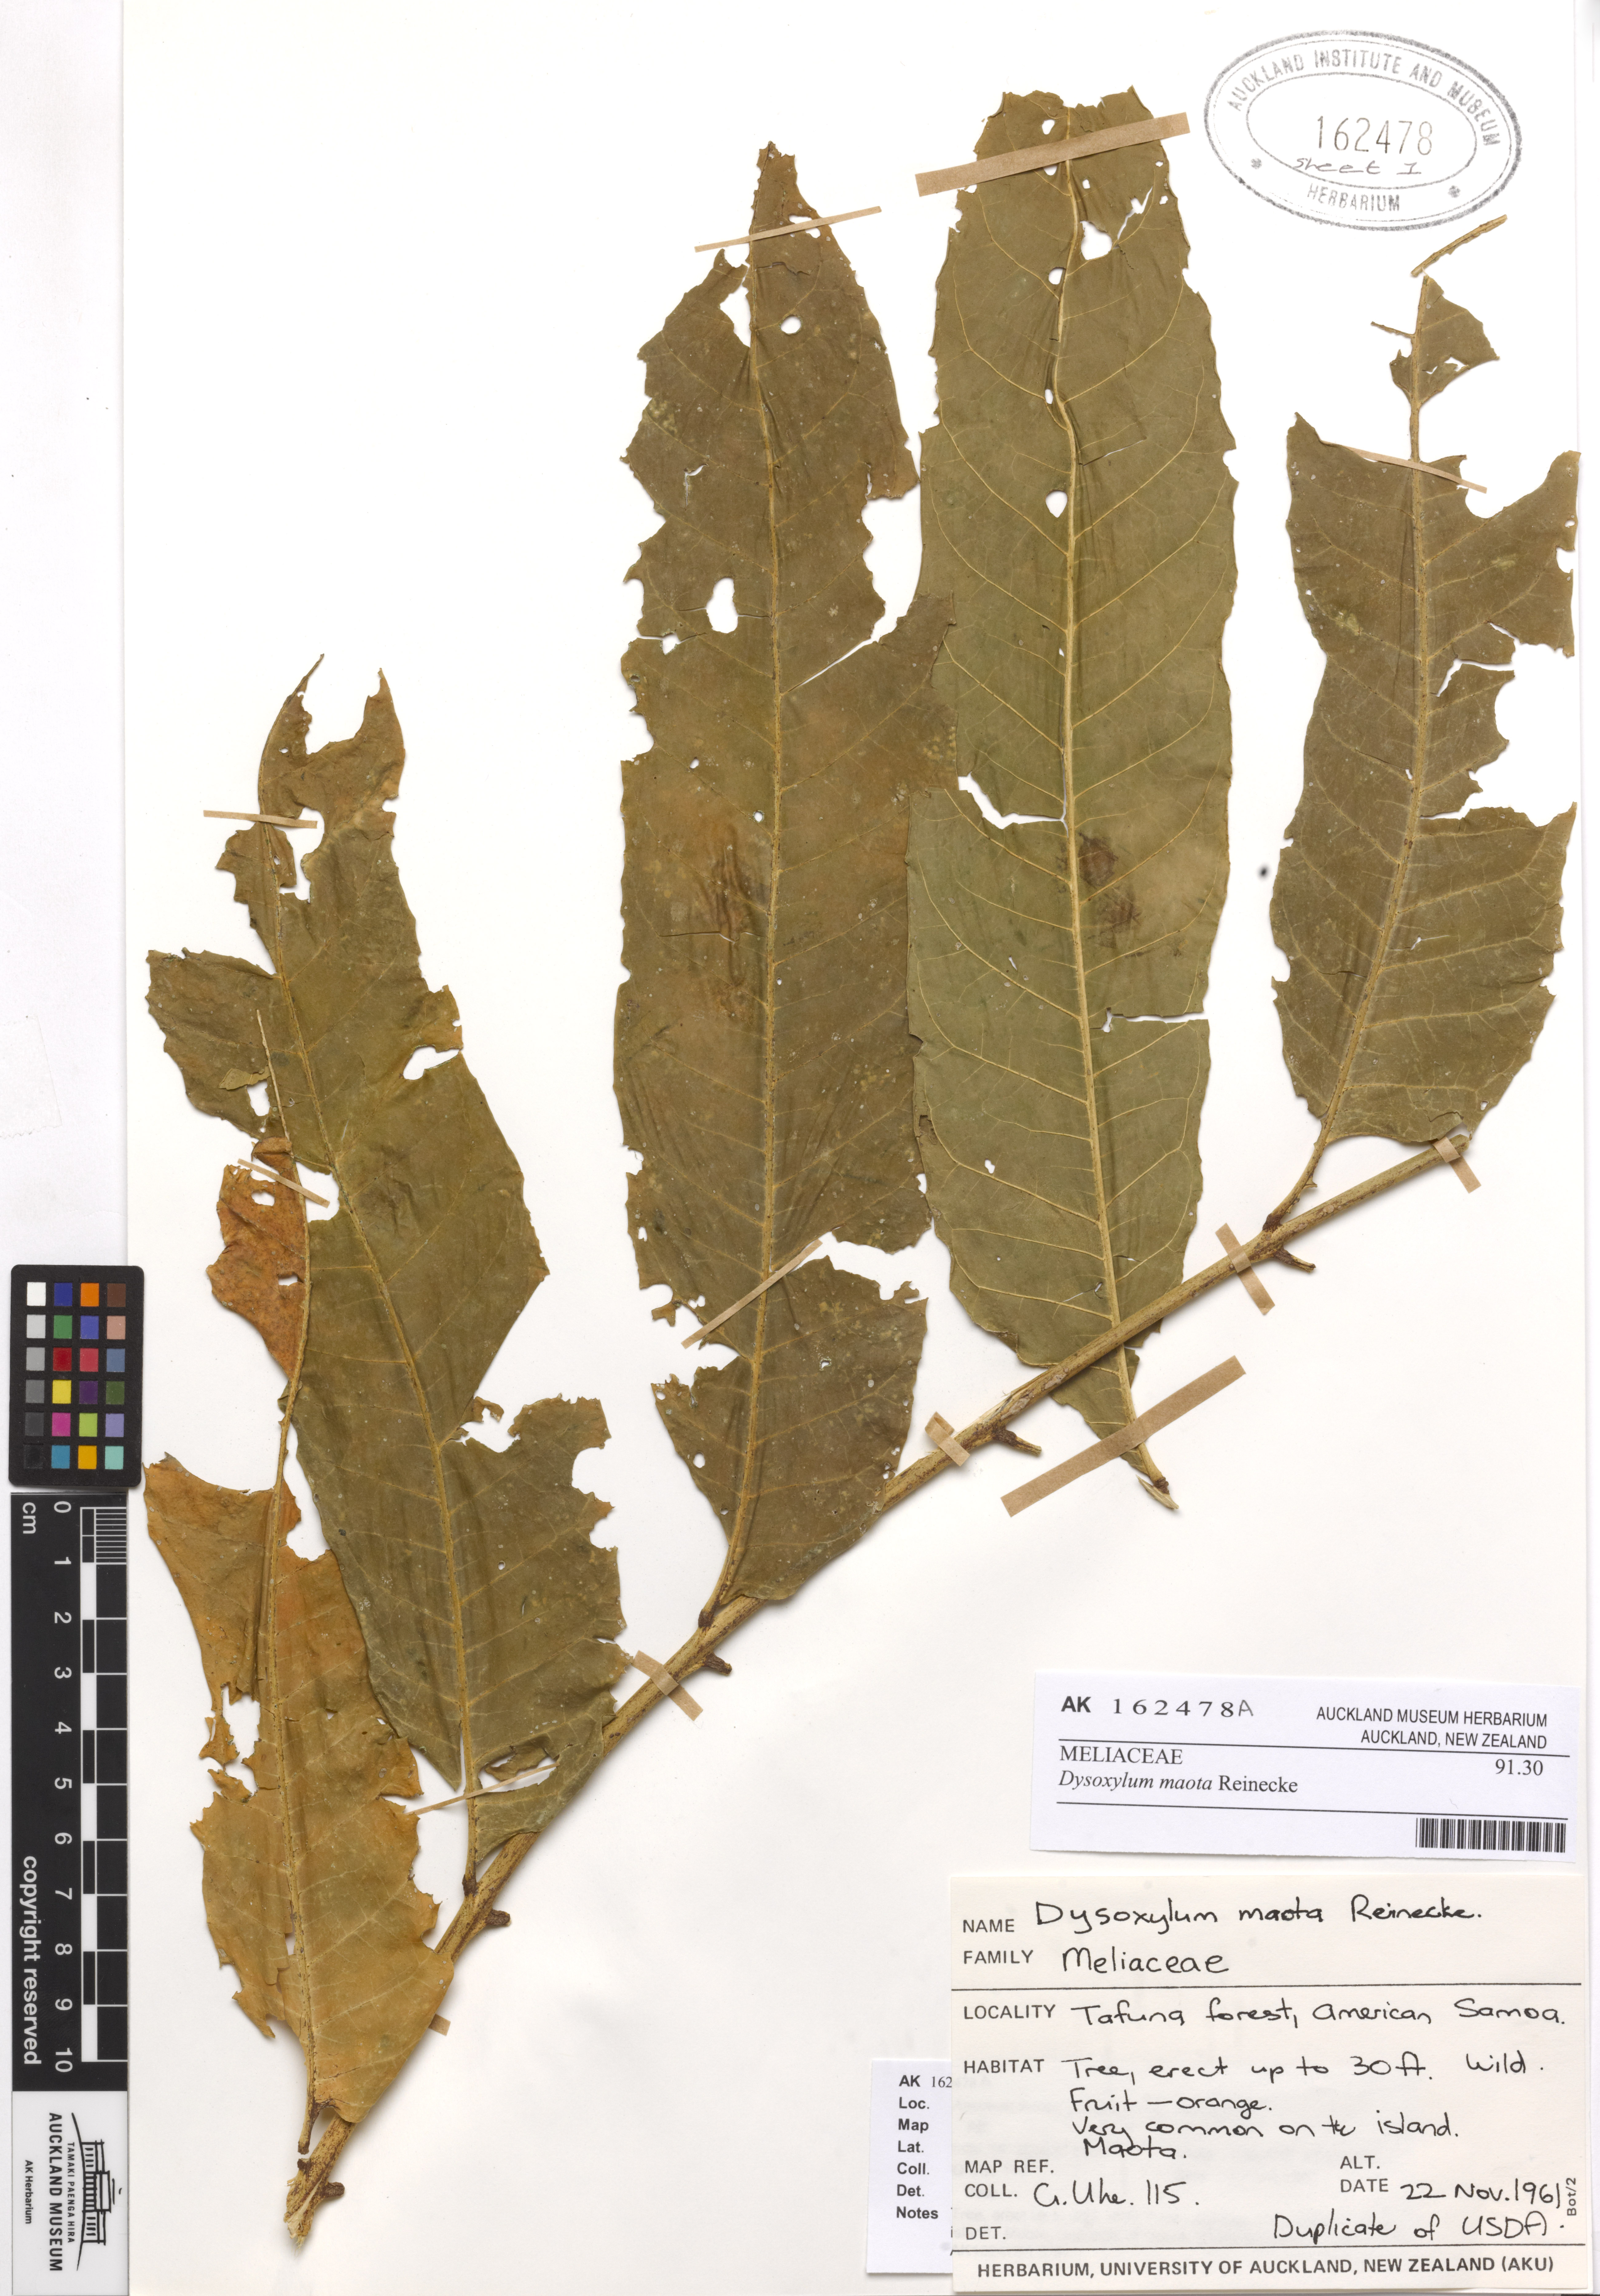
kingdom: Plantae
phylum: Tracheophyta
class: Magnoliopsida
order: Sapindales
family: Meliaceae
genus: Didymocheton
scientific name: Didymocheton maota
